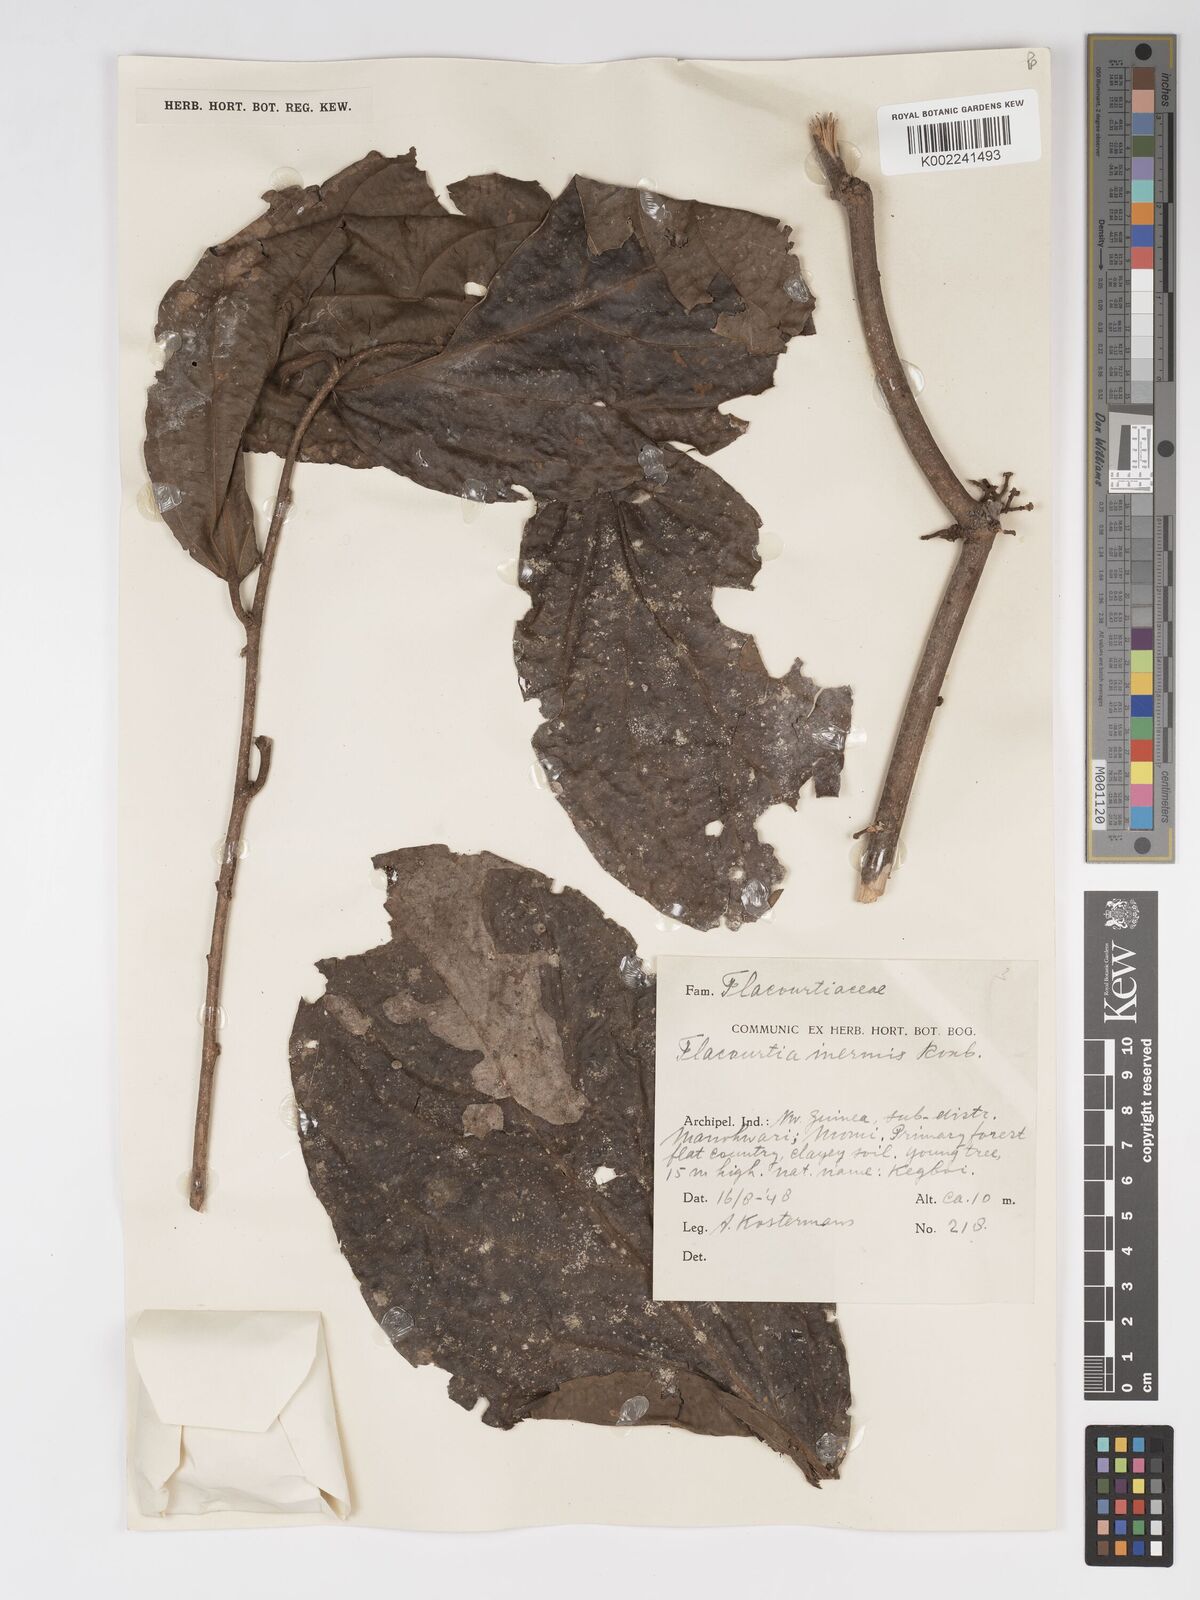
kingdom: Plantae
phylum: Tracheophyta
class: Magnoliopsida
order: Malpighiales
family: Salicaceae
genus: Flacourtia
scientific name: Flacourtia inermis
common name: Plum-of-martinique
